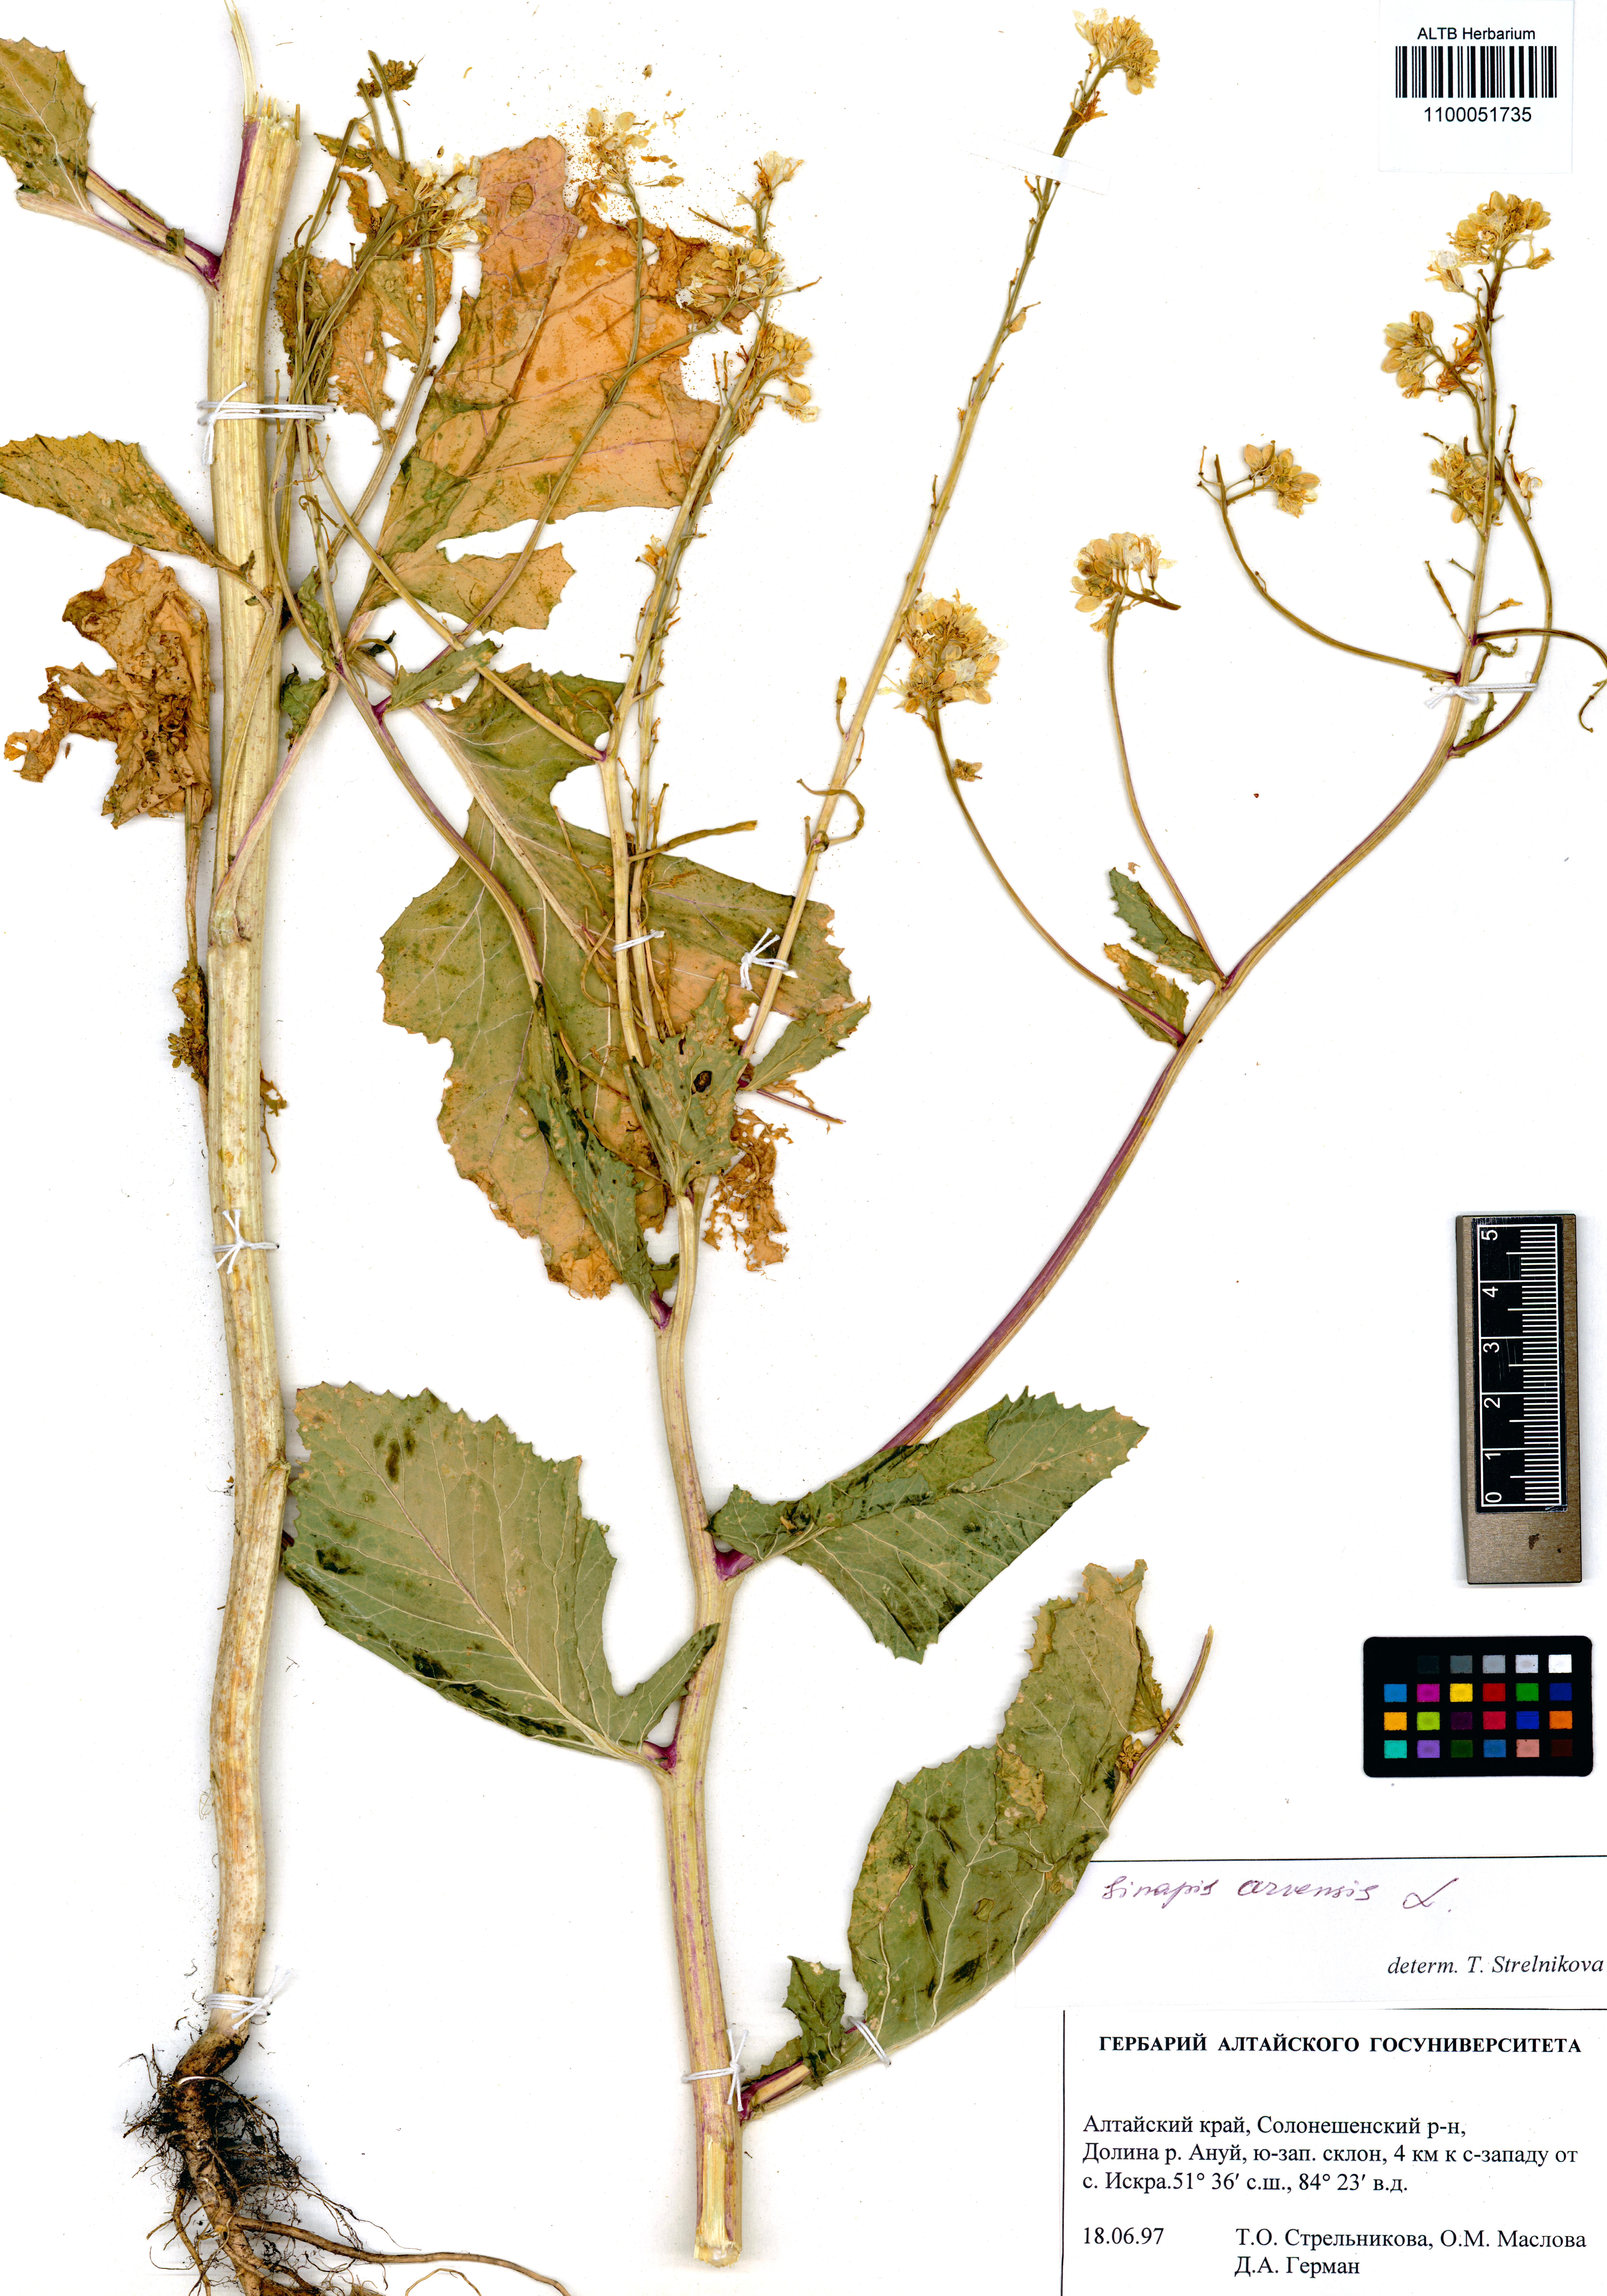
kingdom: Plantae
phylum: Tracheophyta
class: Magnoliopsida
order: Brassicales
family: Brassicaceae
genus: Sinapis
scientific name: Sinapis arvensis
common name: Charlock
